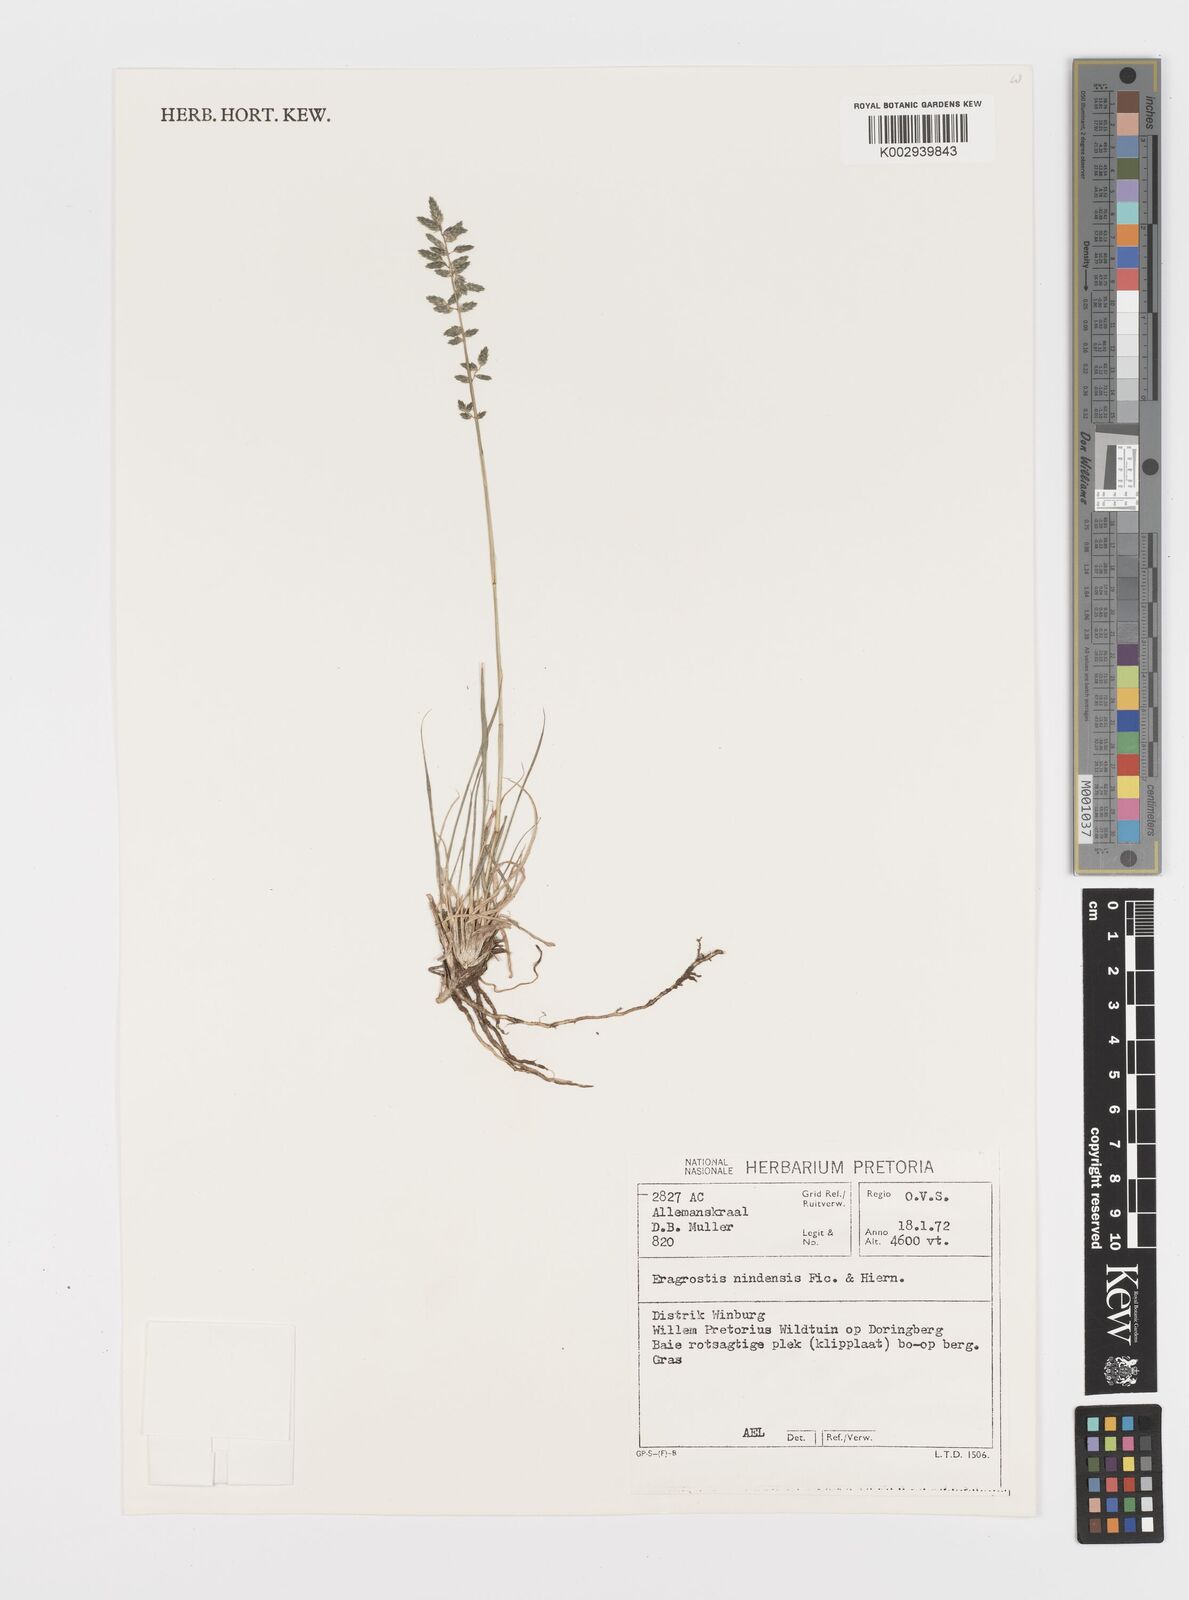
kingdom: Plantae
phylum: Tracheophyta
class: Liliopsida
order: Poales
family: Poaceae
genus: Eragrostis
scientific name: Eragrostis nindensis
